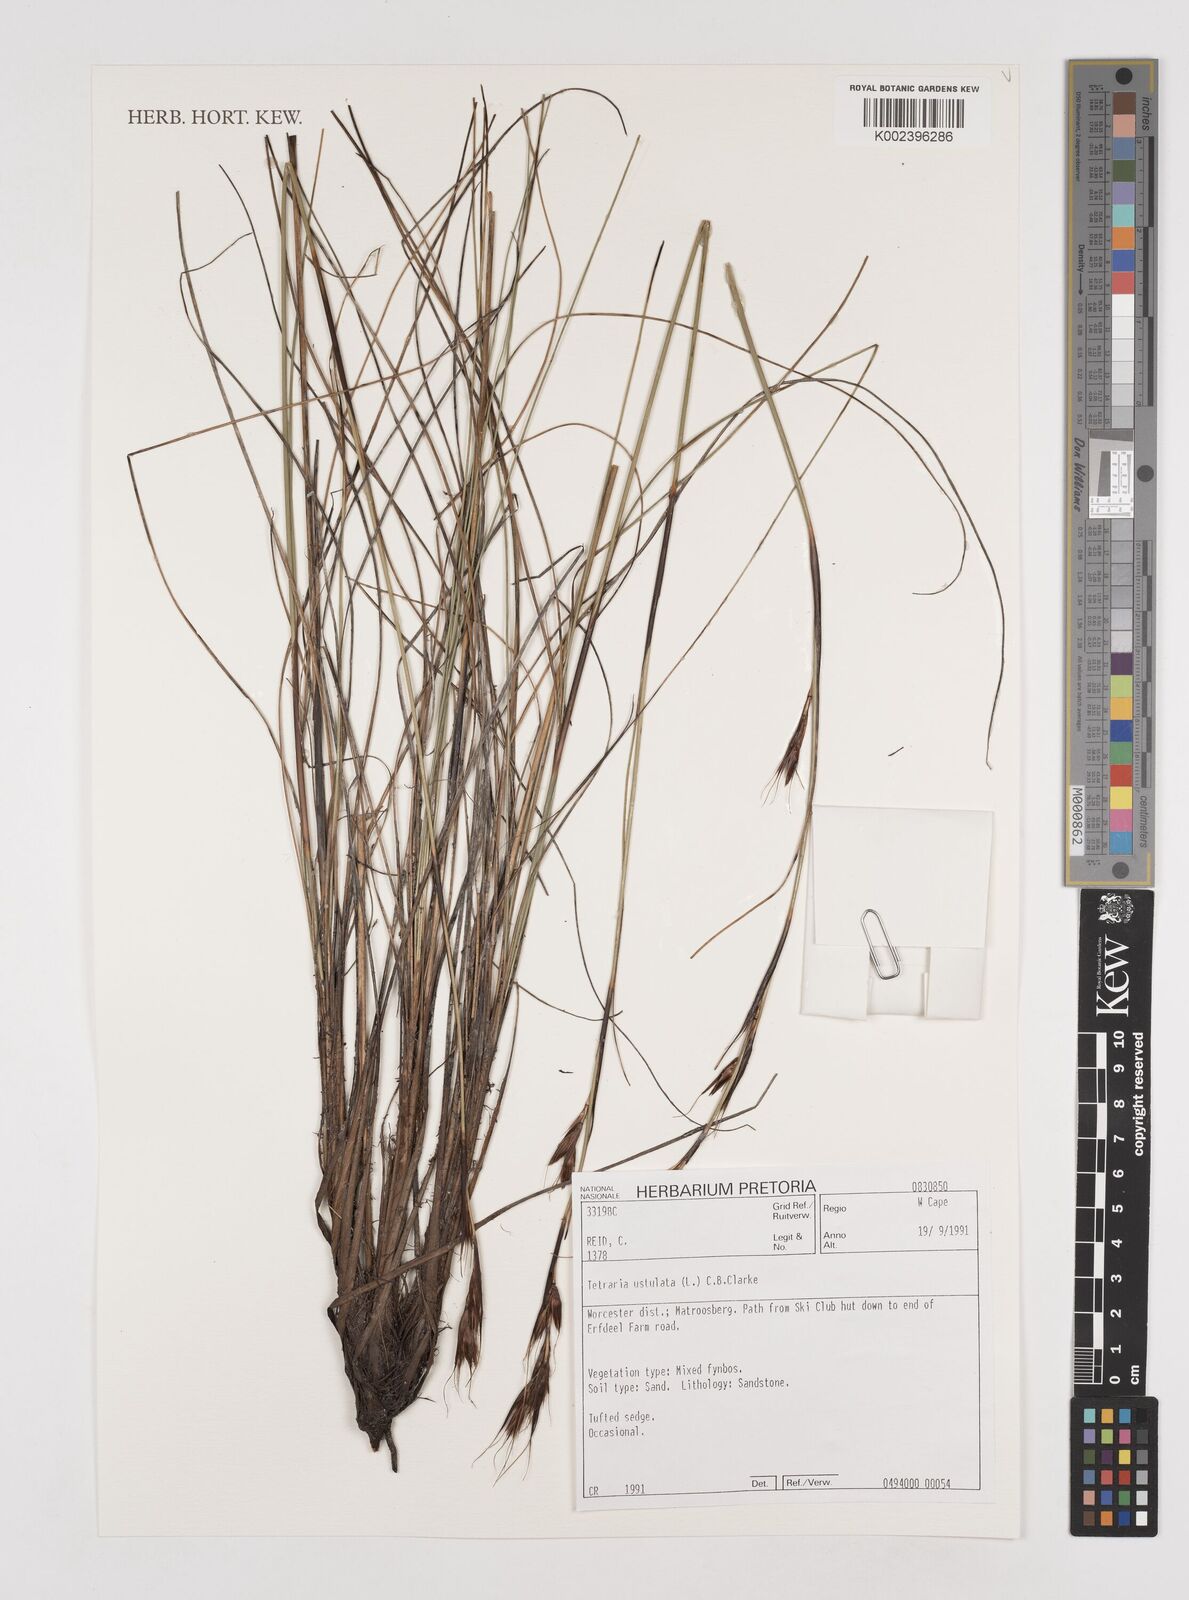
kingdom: Plantae
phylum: Tracheophyta
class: Liliopsida
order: Poales
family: Cyperaceae
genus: Tetraria
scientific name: Tetraria ustulata
